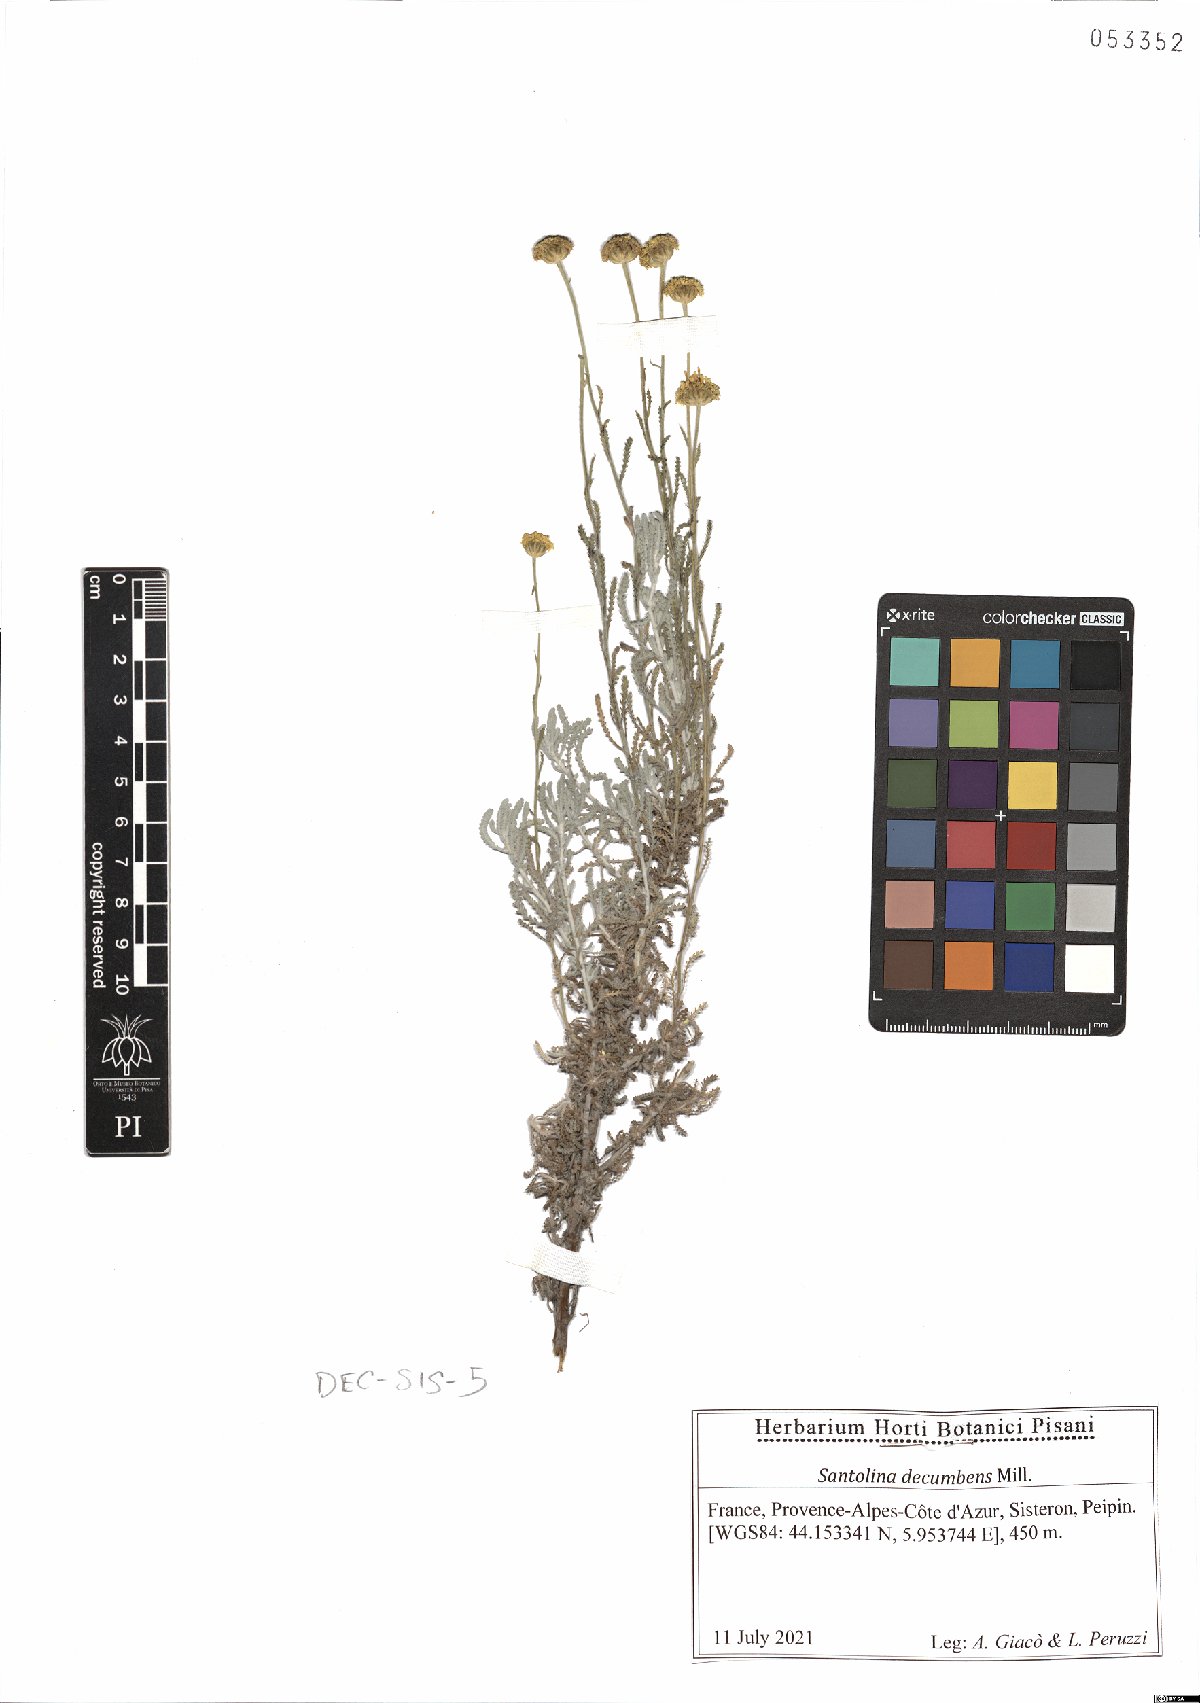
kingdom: Plantae
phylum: Tracheophyta
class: Magnoliopsida
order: Asterales
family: Asteraceae
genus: Santolina
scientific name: Santolina decumbens
